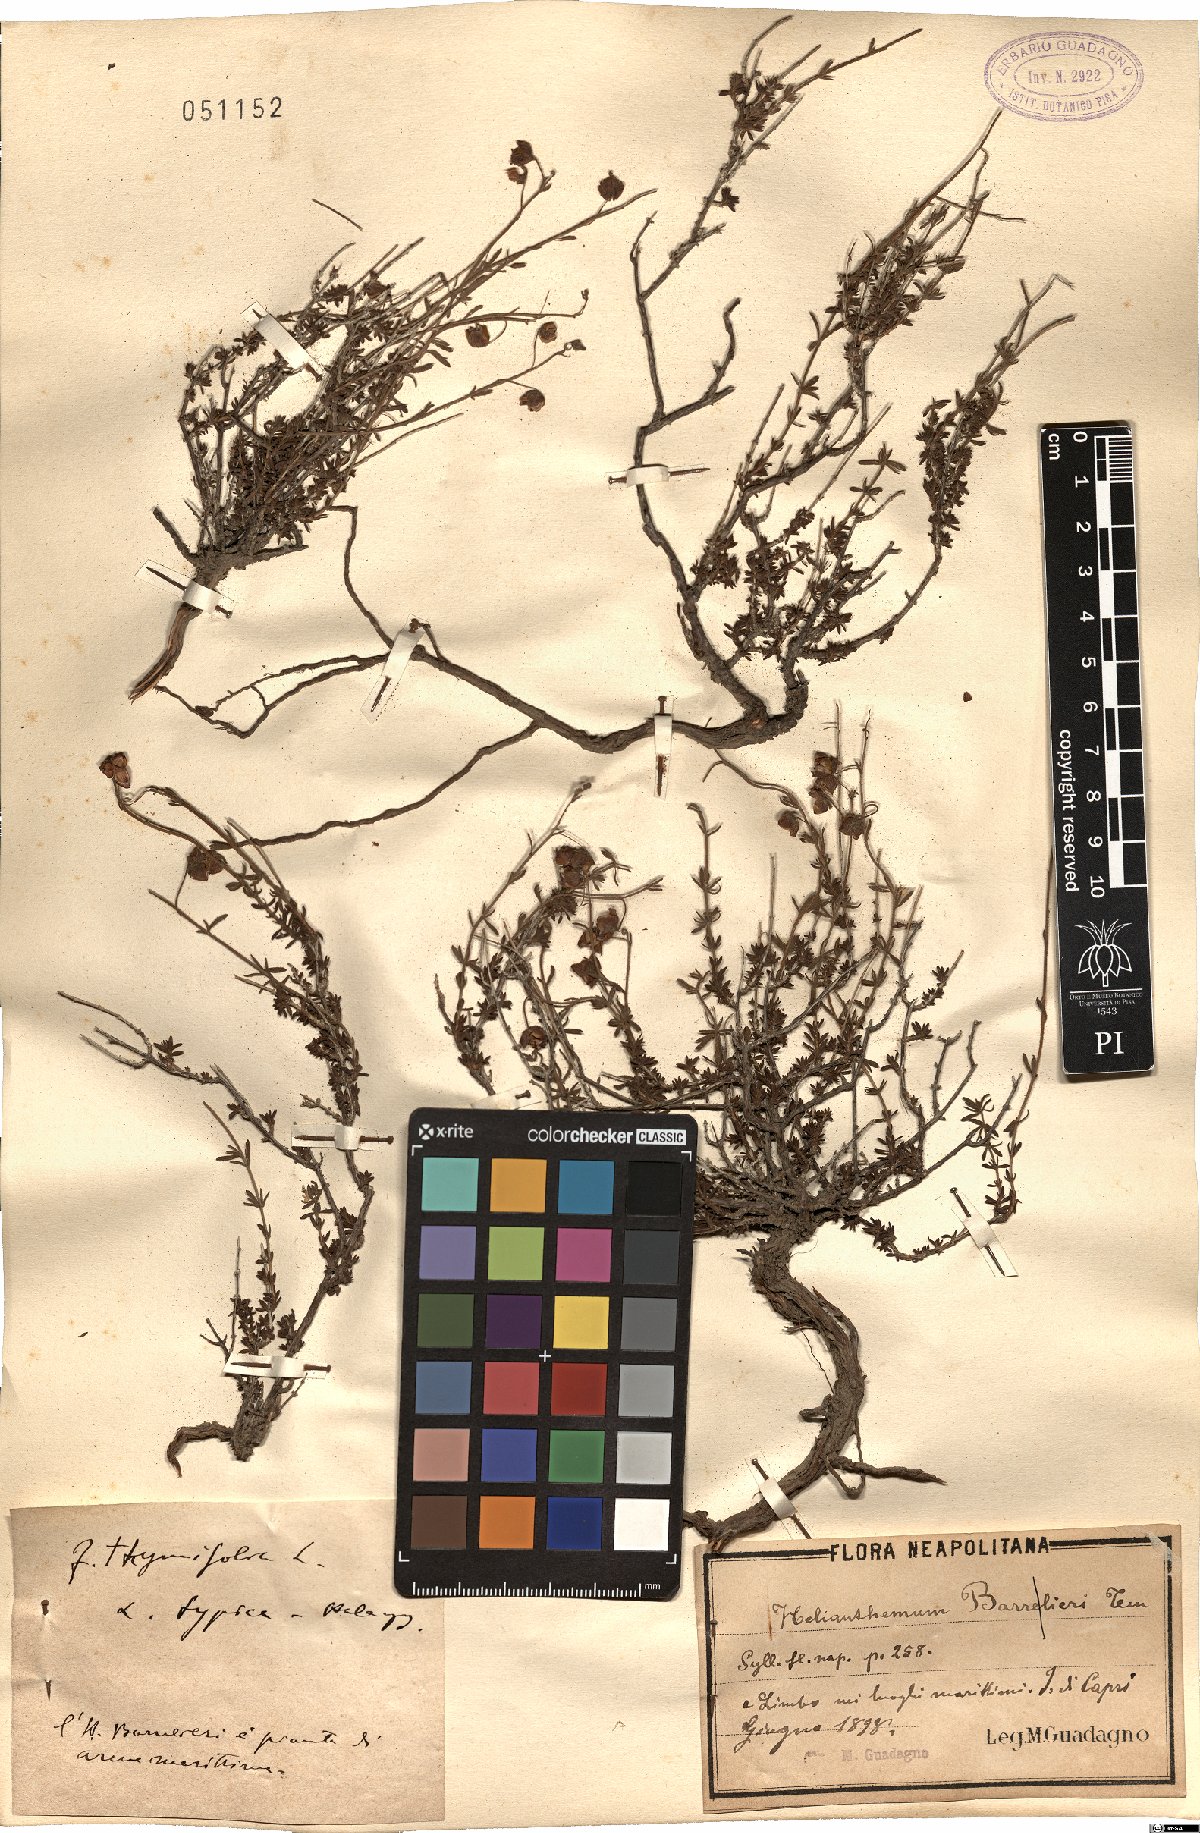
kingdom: Plantae
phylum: Tracheophyta
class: Magnoliopsida
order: Malvales
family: Cistaceae
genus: Fumana
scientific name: Fumana thymifolia
